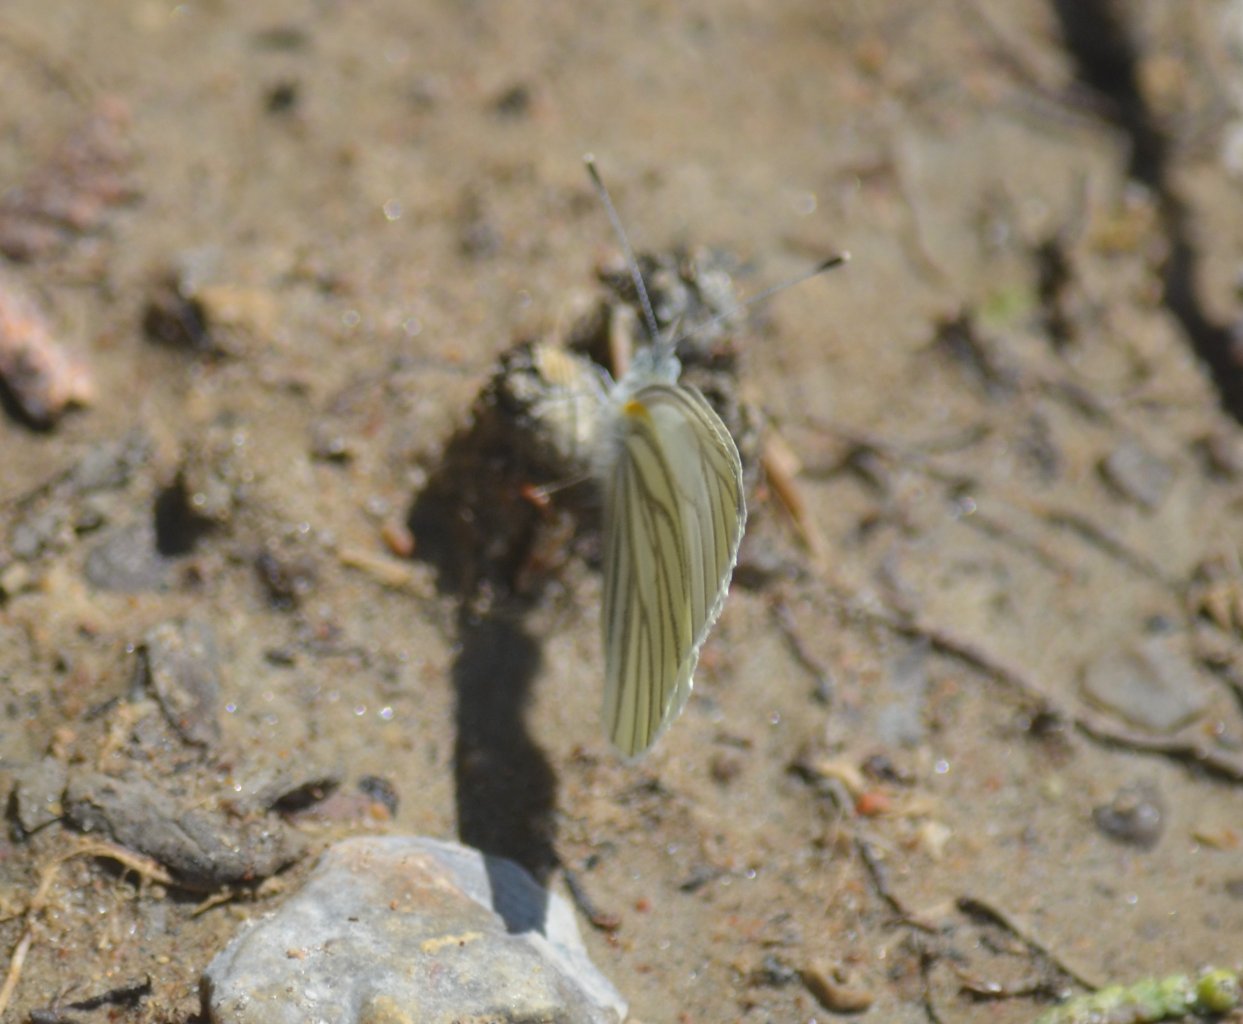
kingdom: Animalia
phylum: Arthropoda
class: Insecta
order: Lepidoptera
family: Pieridae
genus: Pieris
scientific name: Pieris oleracea
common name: Mustard White
